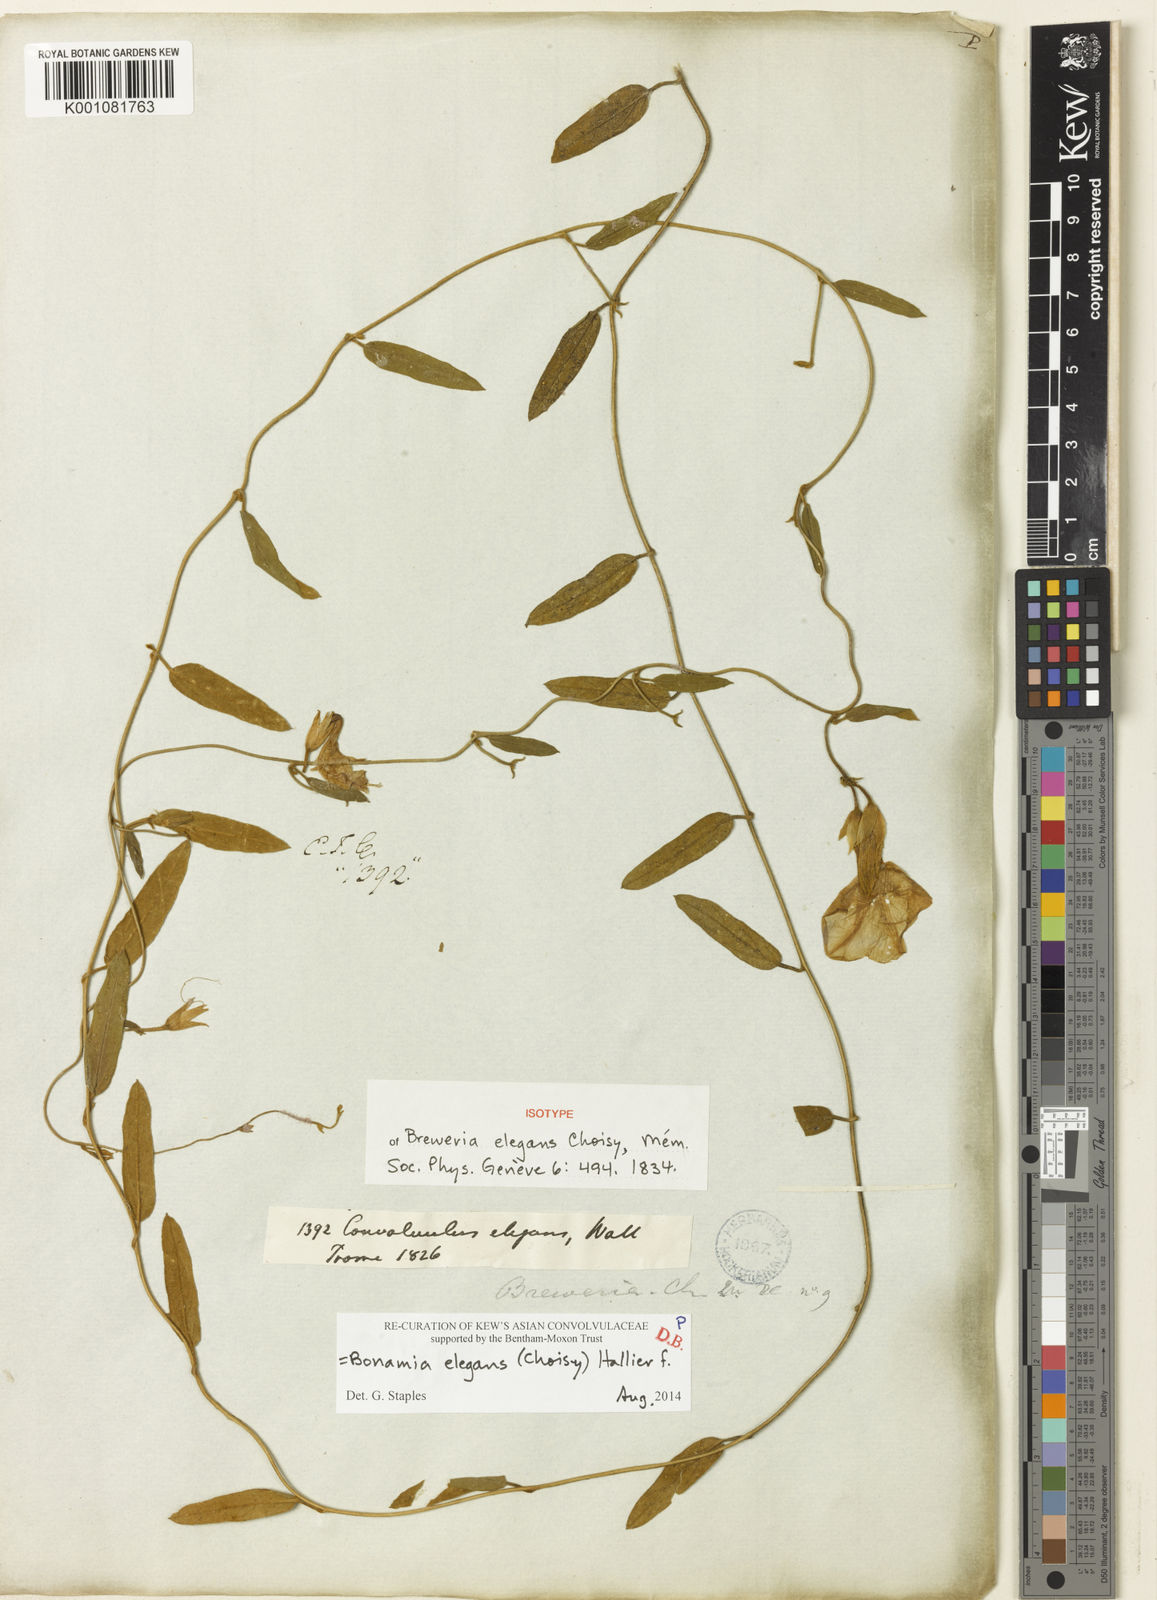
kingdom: Plantae
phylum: Tracheophyta
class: Magnoliopsida
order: Solanales
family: Convolvulaceae
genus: Bonamia
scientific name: Bonamia elegans
